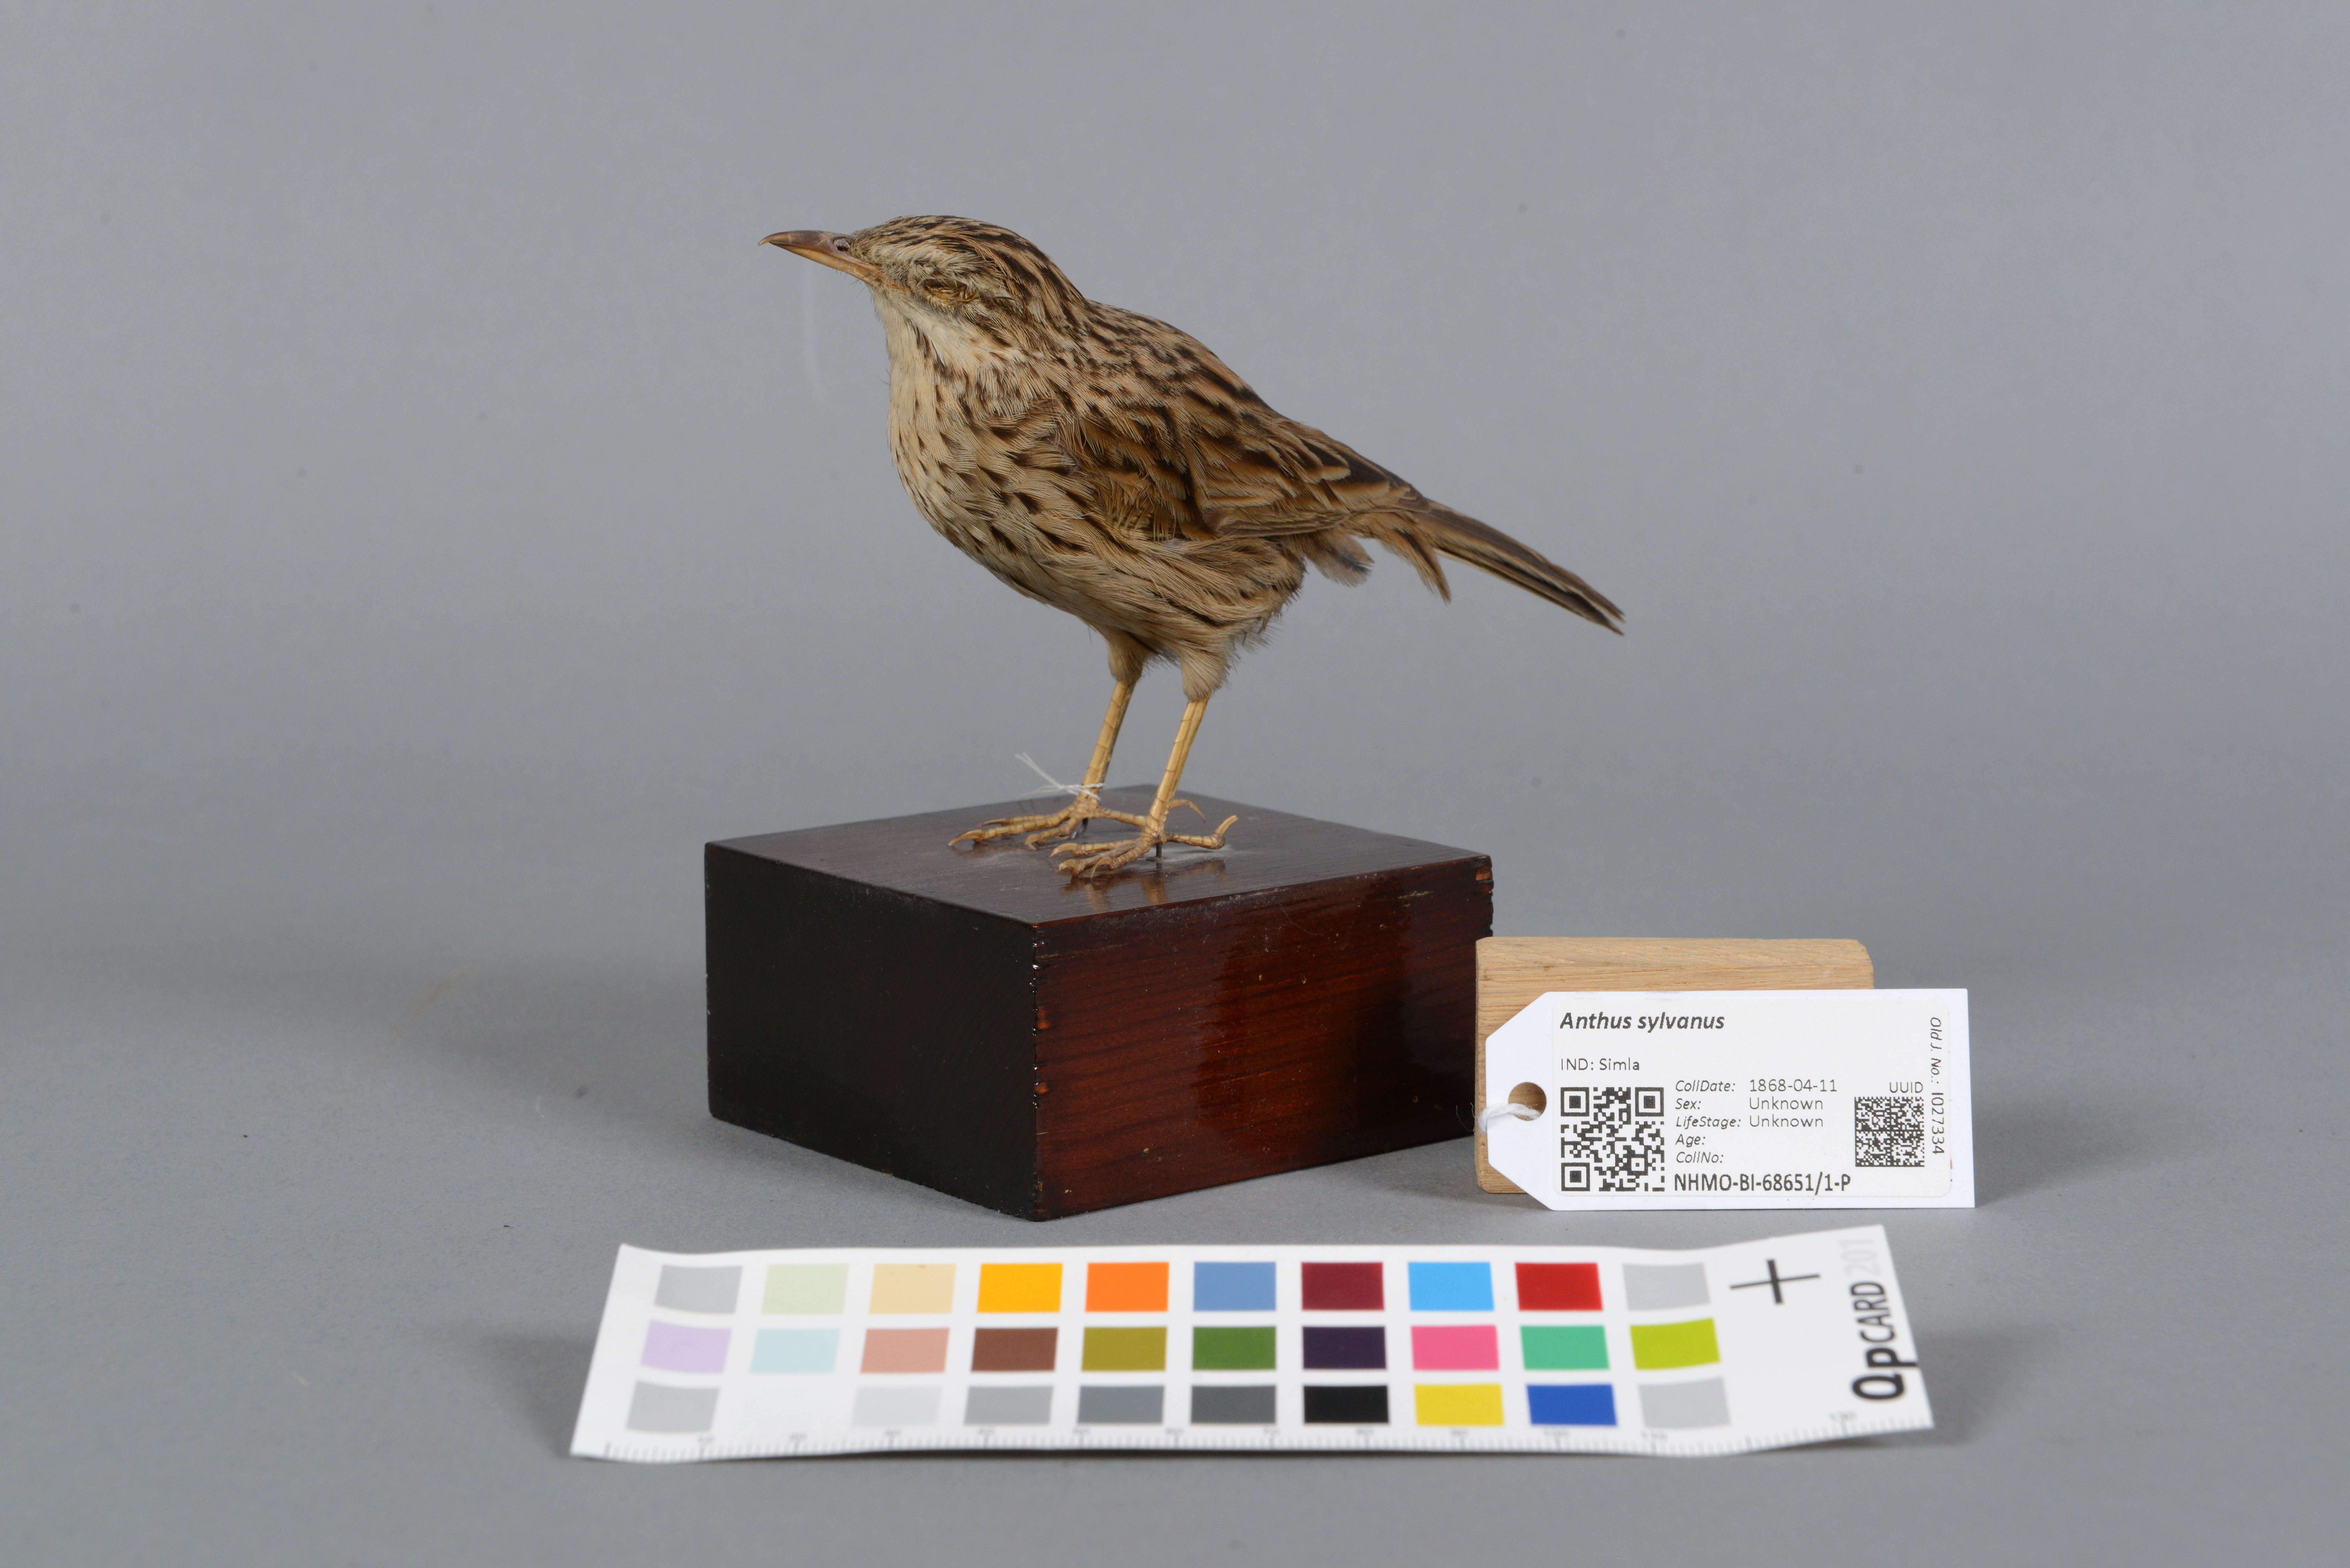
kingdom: Animalia
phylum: Chordata
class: Aves
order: Passeriformes
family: Motacillidae
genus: Anthus
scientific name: Anthus sylvanus
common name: Upland pipit
